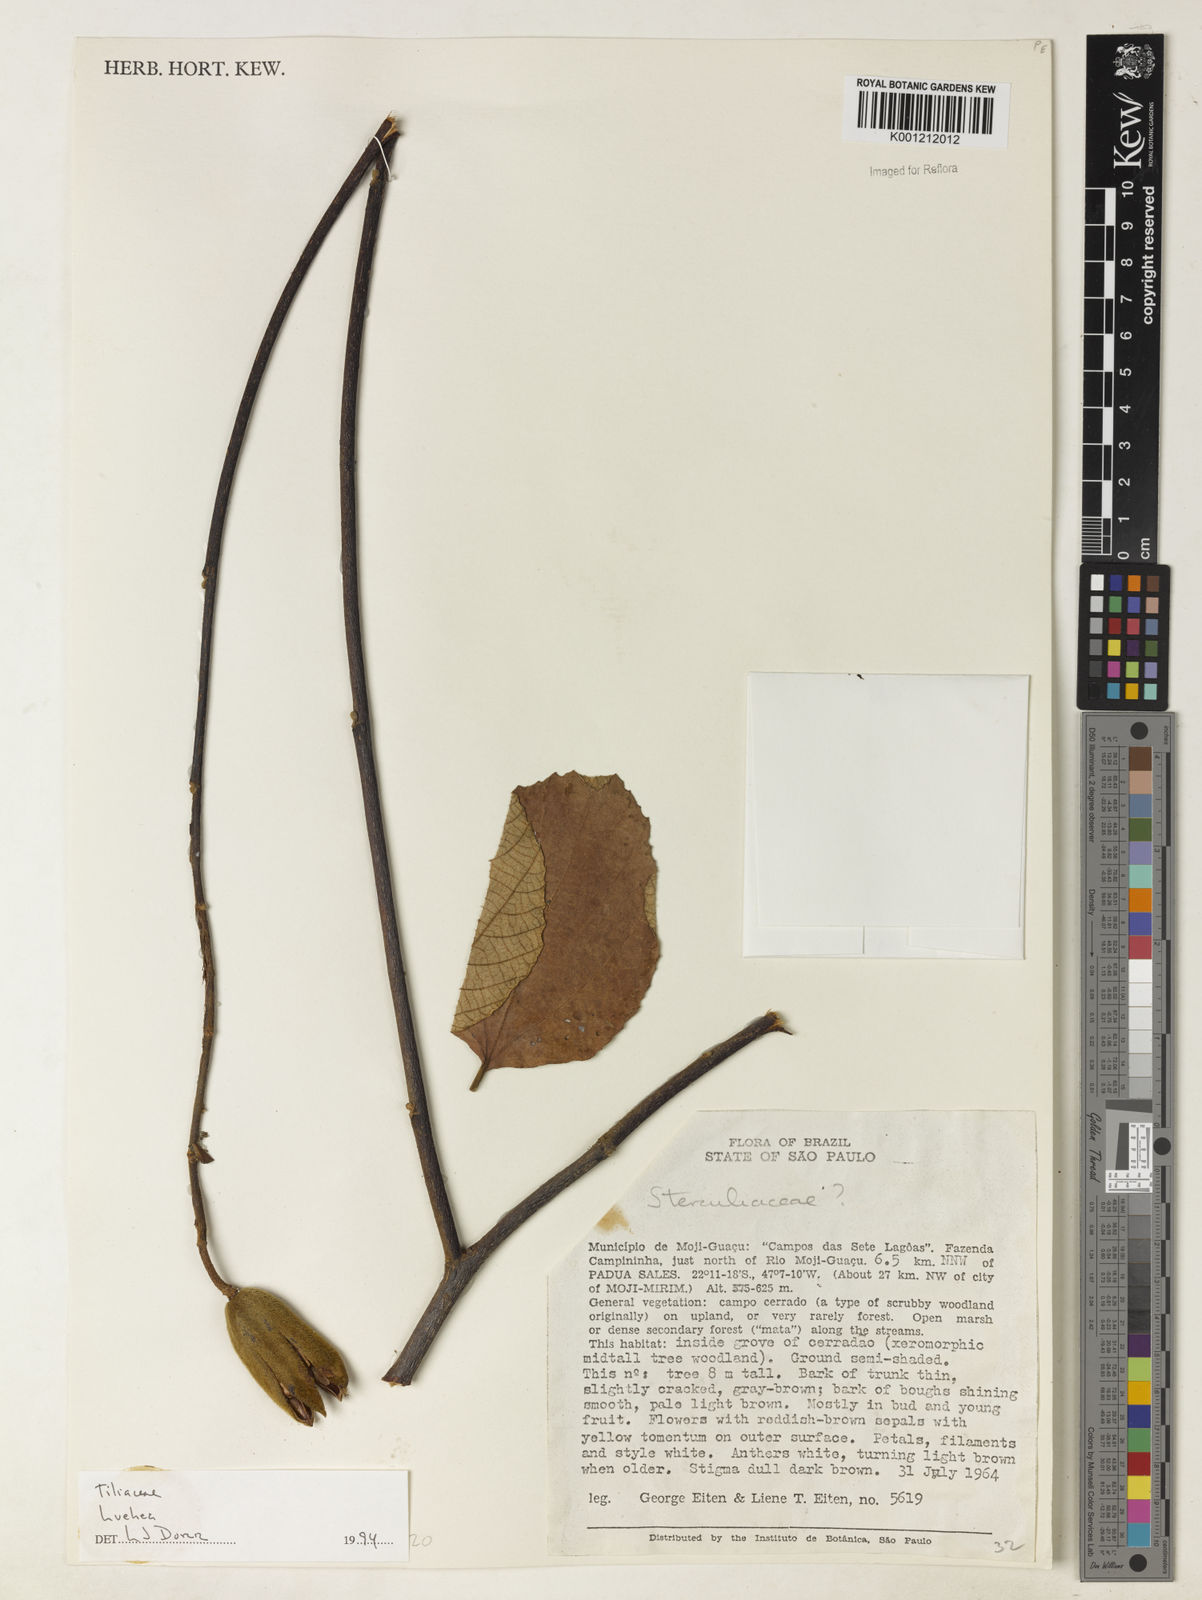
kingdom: Plantae
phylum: Tracheophyta
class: Magnoliopsida
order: Malvales
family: Malvaceae
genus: Luehea
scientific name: Luehea
